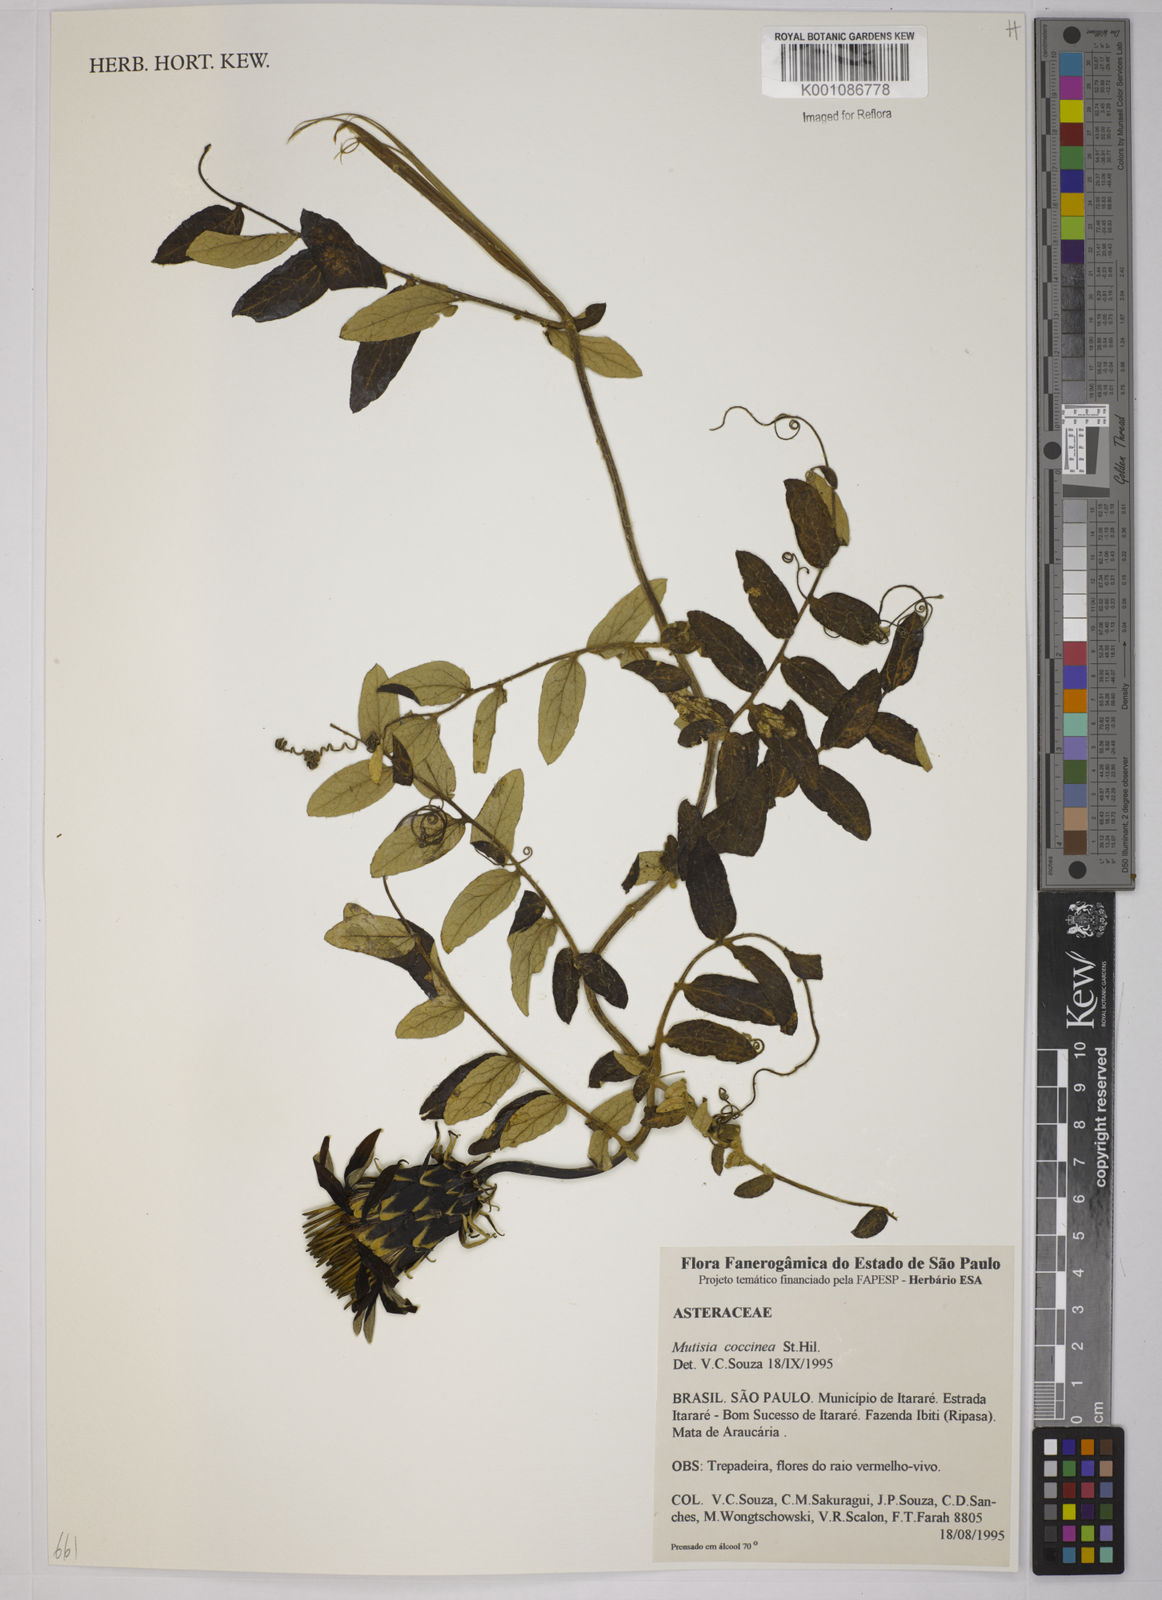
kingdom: Plantae
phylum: Tracheophyta
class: Magnoliopsida
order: Asterales
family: Asteraceae
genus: Mutisia
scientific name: Mutisia coccinea
